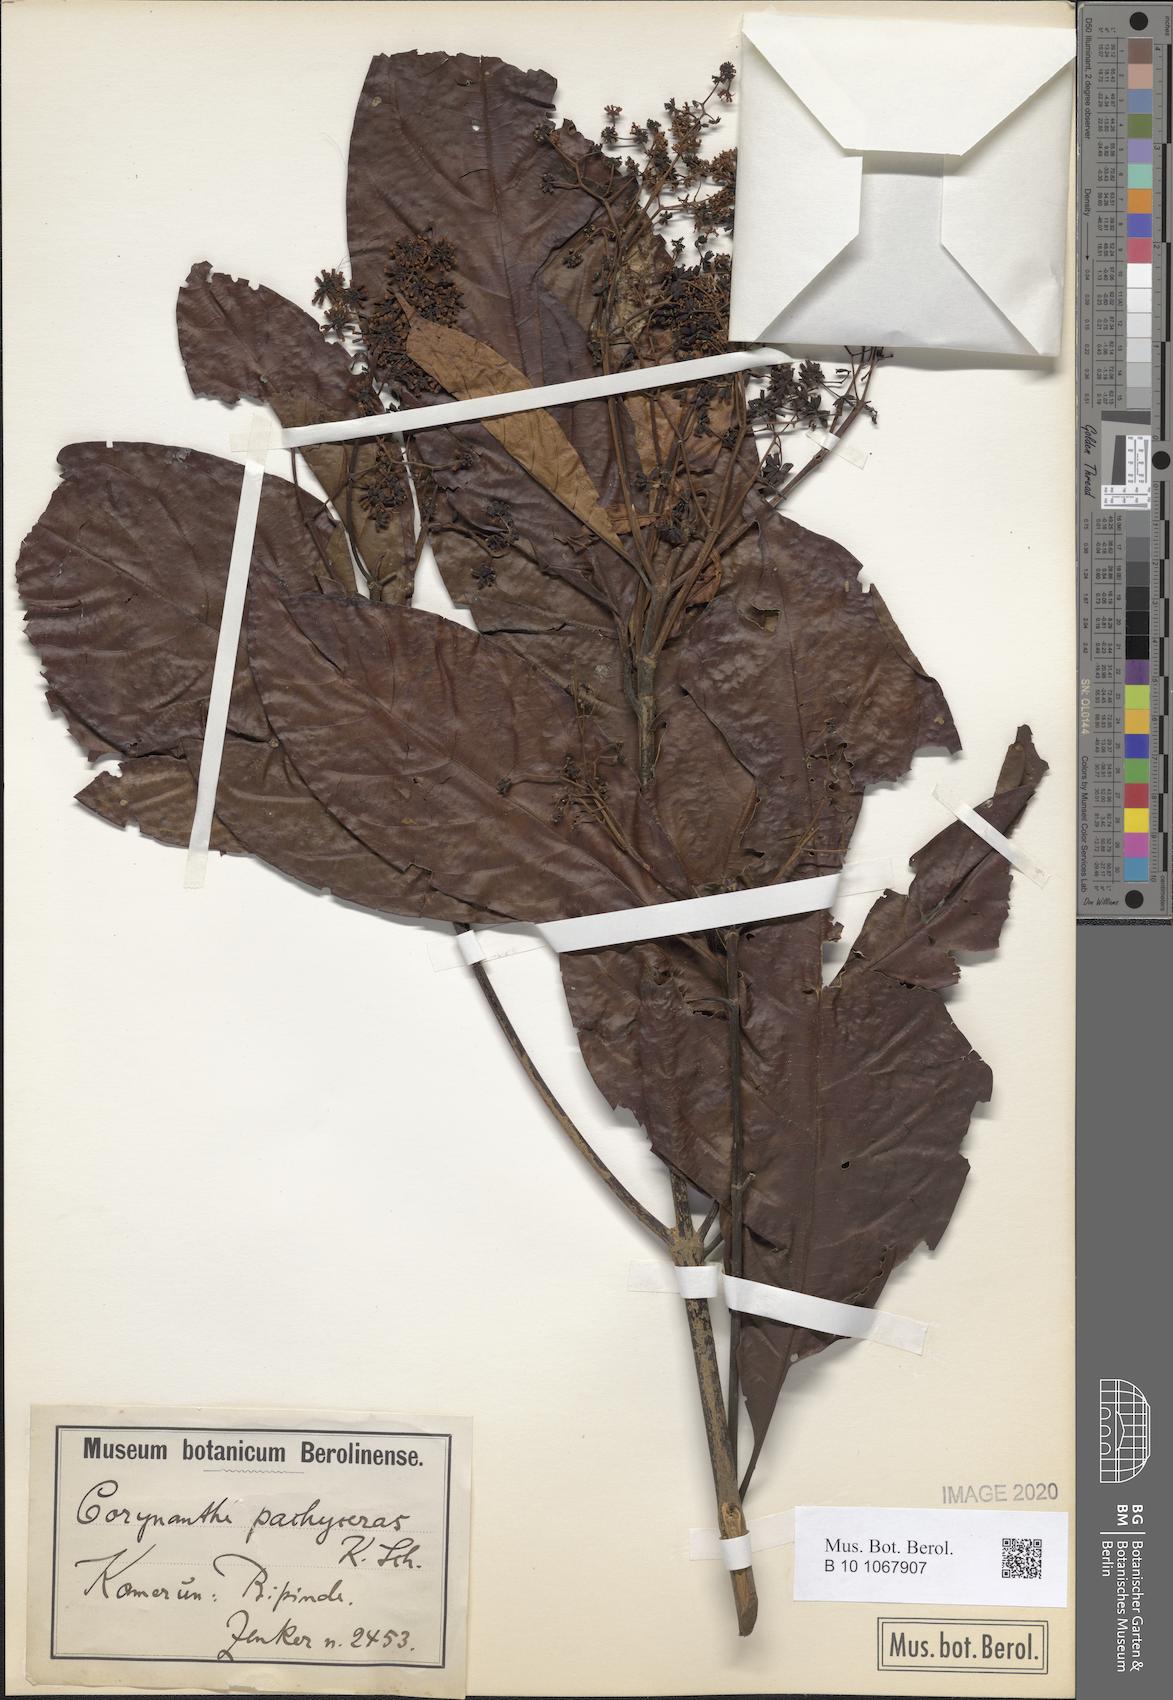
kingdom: Plantae
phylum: Tracheophyta
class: Magnoliopsida
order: Gentianales
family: Rubiaceae
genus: Corynanthe
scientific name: Corynanthe pachyceras
